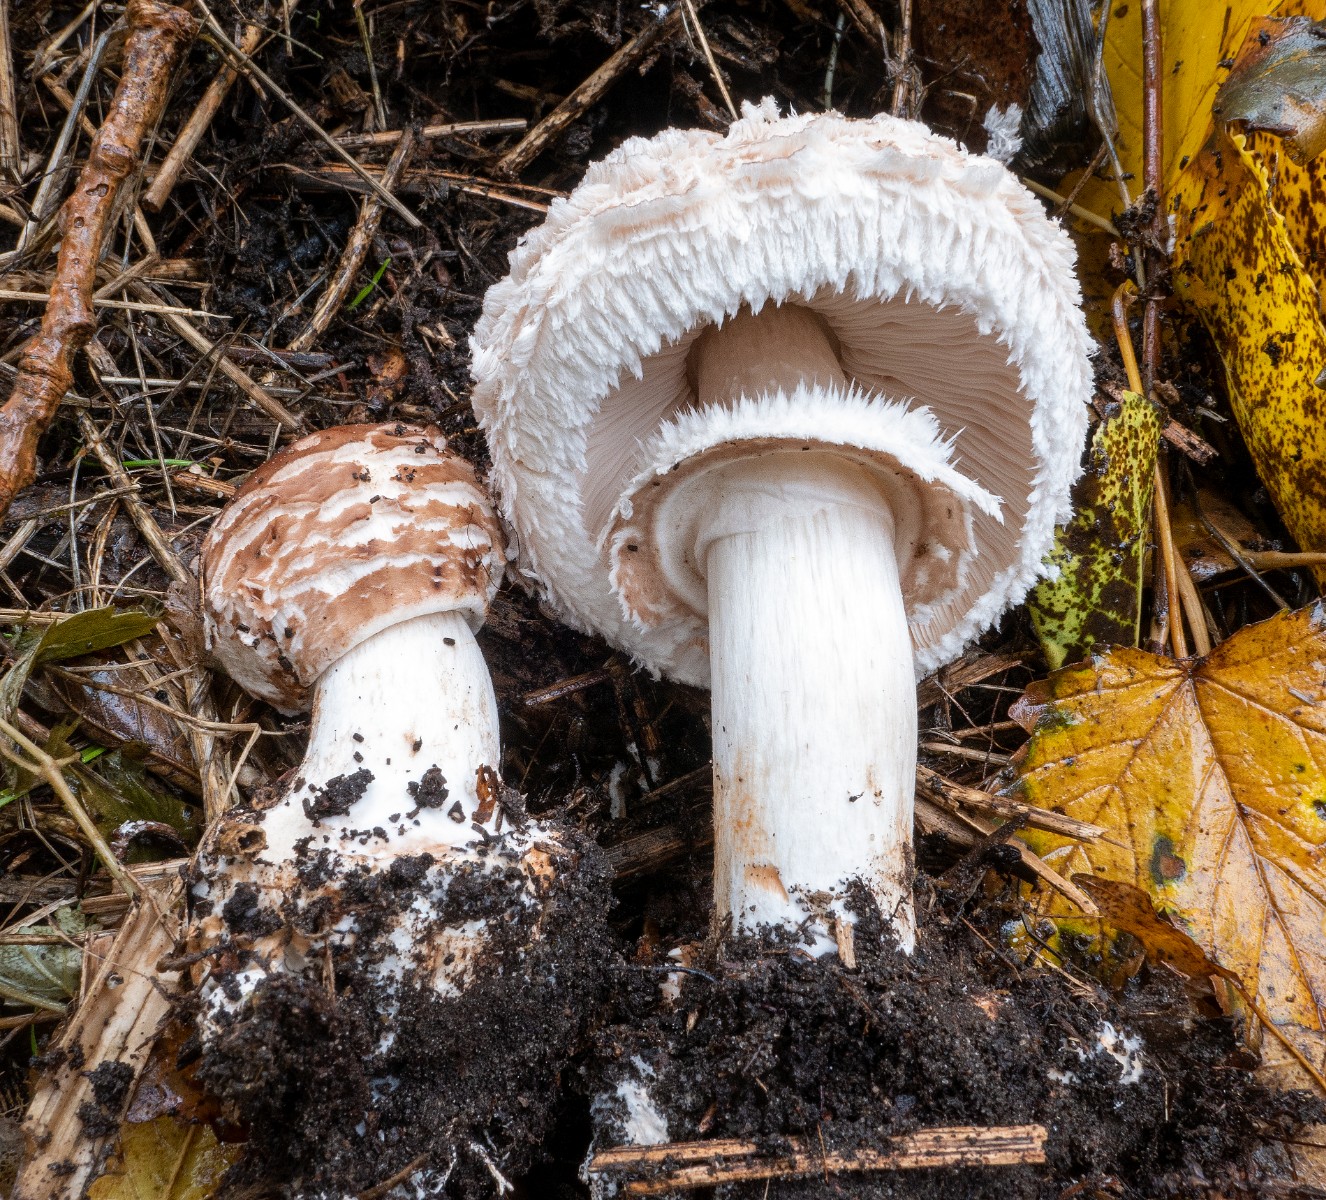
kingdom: Fungi
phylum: Basidiomycota
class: Agaricomycetes
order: Agaricales
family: Agaricaceae
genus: Chlorophyllum
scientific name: Chlorophyllum brunneum
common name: giftig rabarberhat
